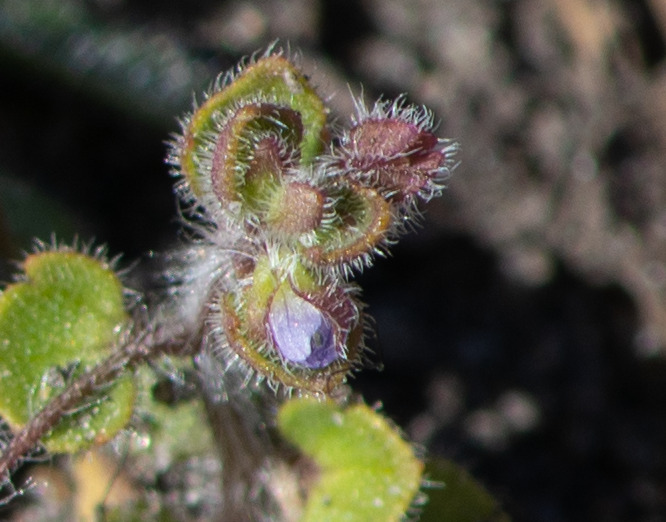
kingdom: Plantae
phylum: Tracheophyta
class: Magnoliopsida
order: Lamiales
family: Plantaginaceae
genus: Veronica
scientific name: Veronica sublobata
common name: Krat-ærenpris
